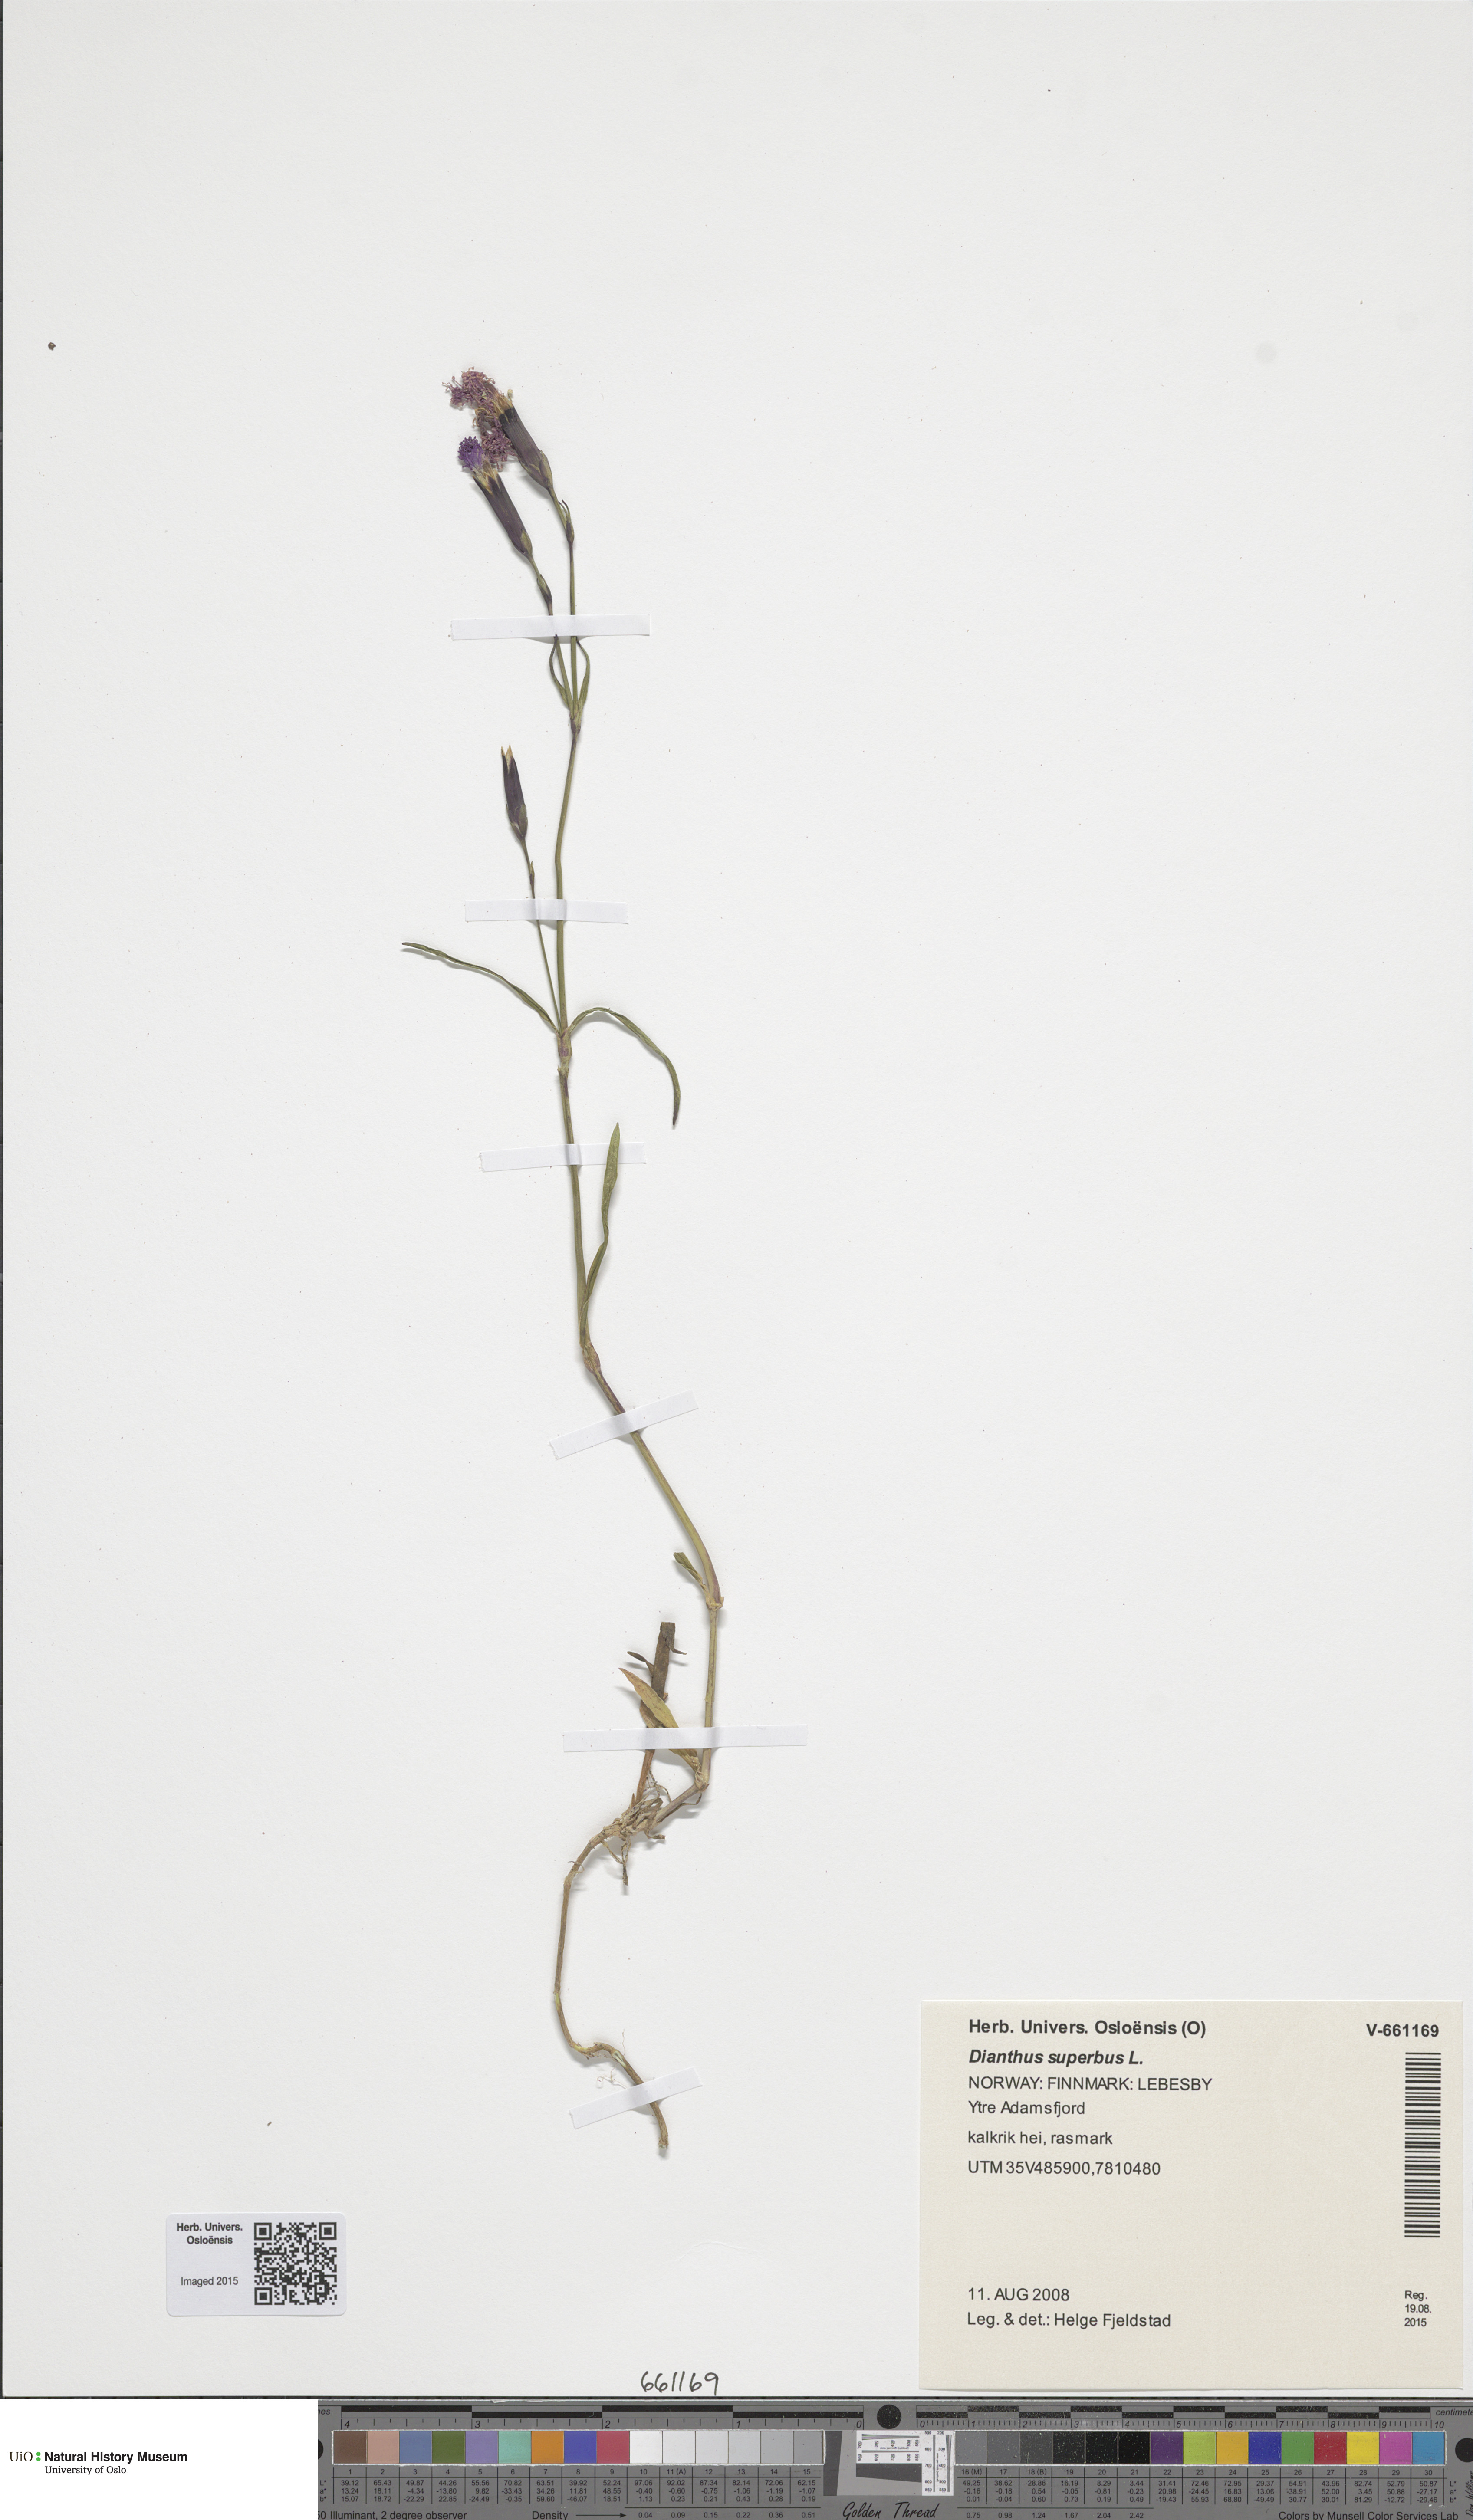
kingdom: Plantae
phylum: Tracheophyta
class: Magnoliopsida
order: Caryophyllales
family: Caryophyllaceae
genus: Dianthus
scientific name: Dianthus superbus
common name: Fringed pink
